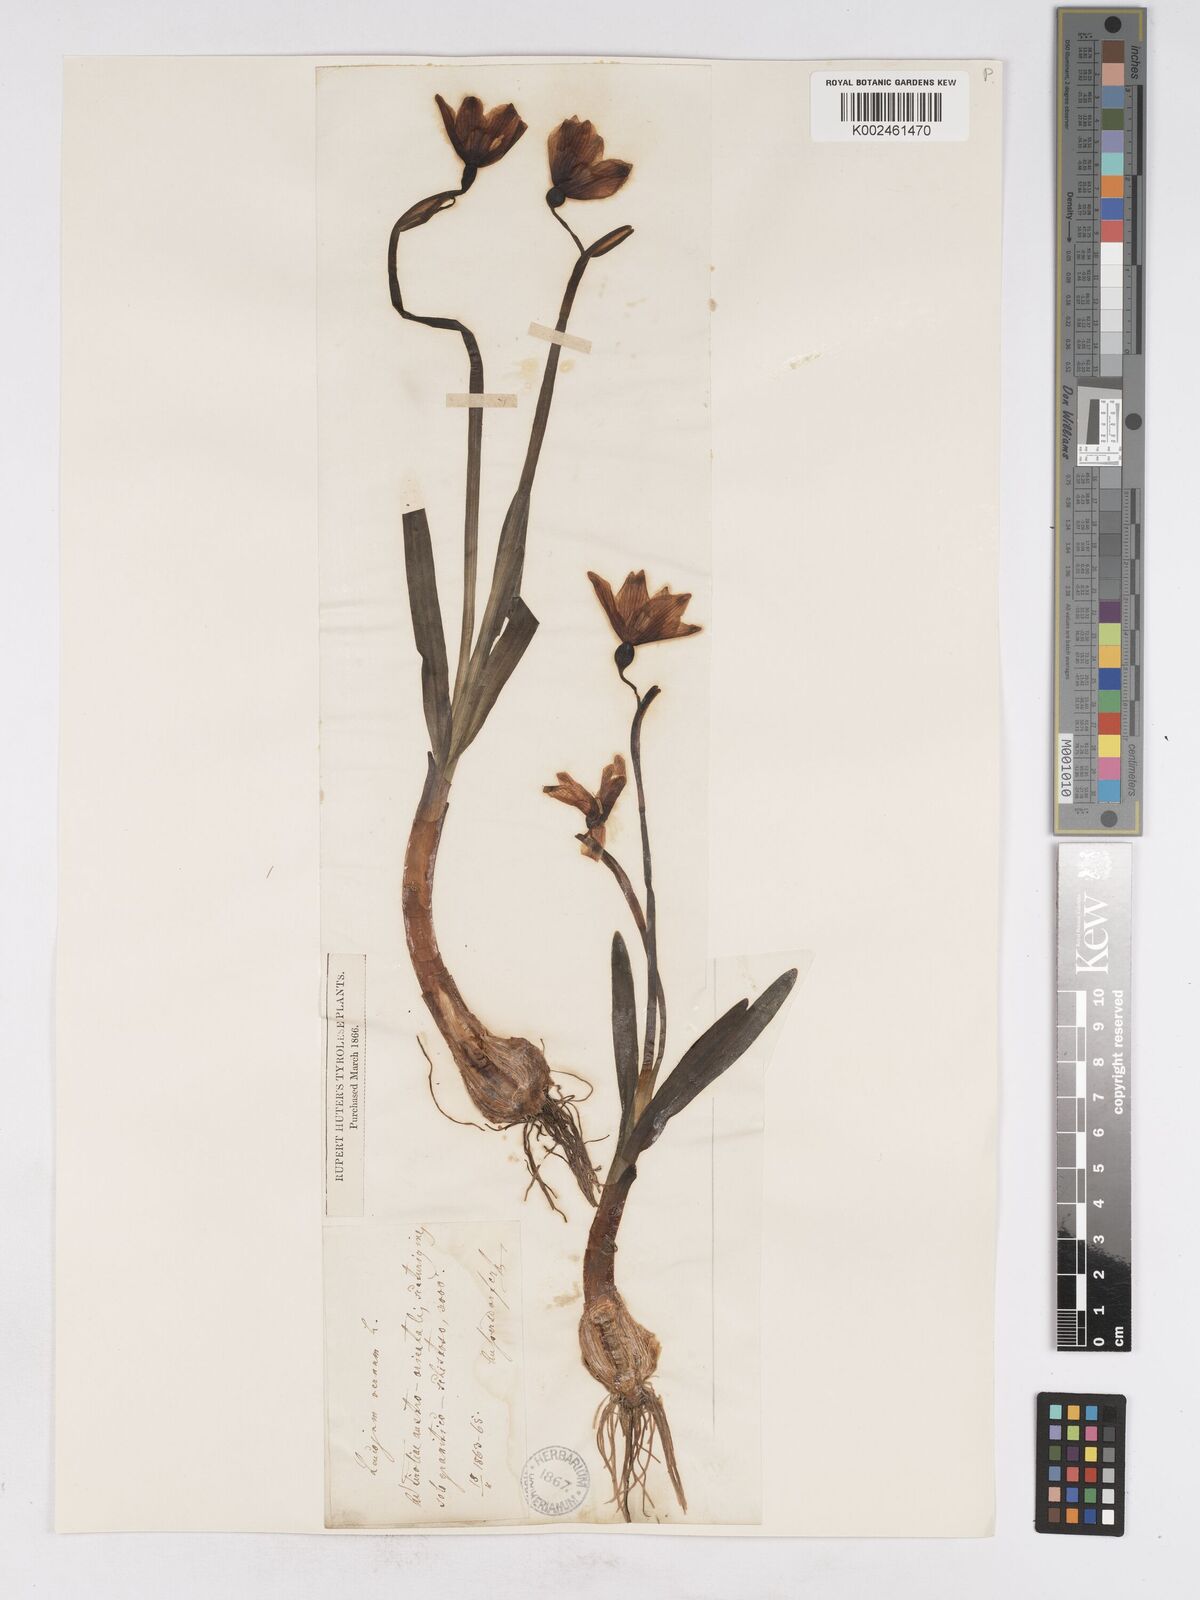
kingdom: Plantae
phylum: Tracheophyta
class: Liliopsida
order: Asparagales
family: Amaryllidaceae
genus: Leucojum
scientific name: Leucojum vernum
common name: Spring snowflake
